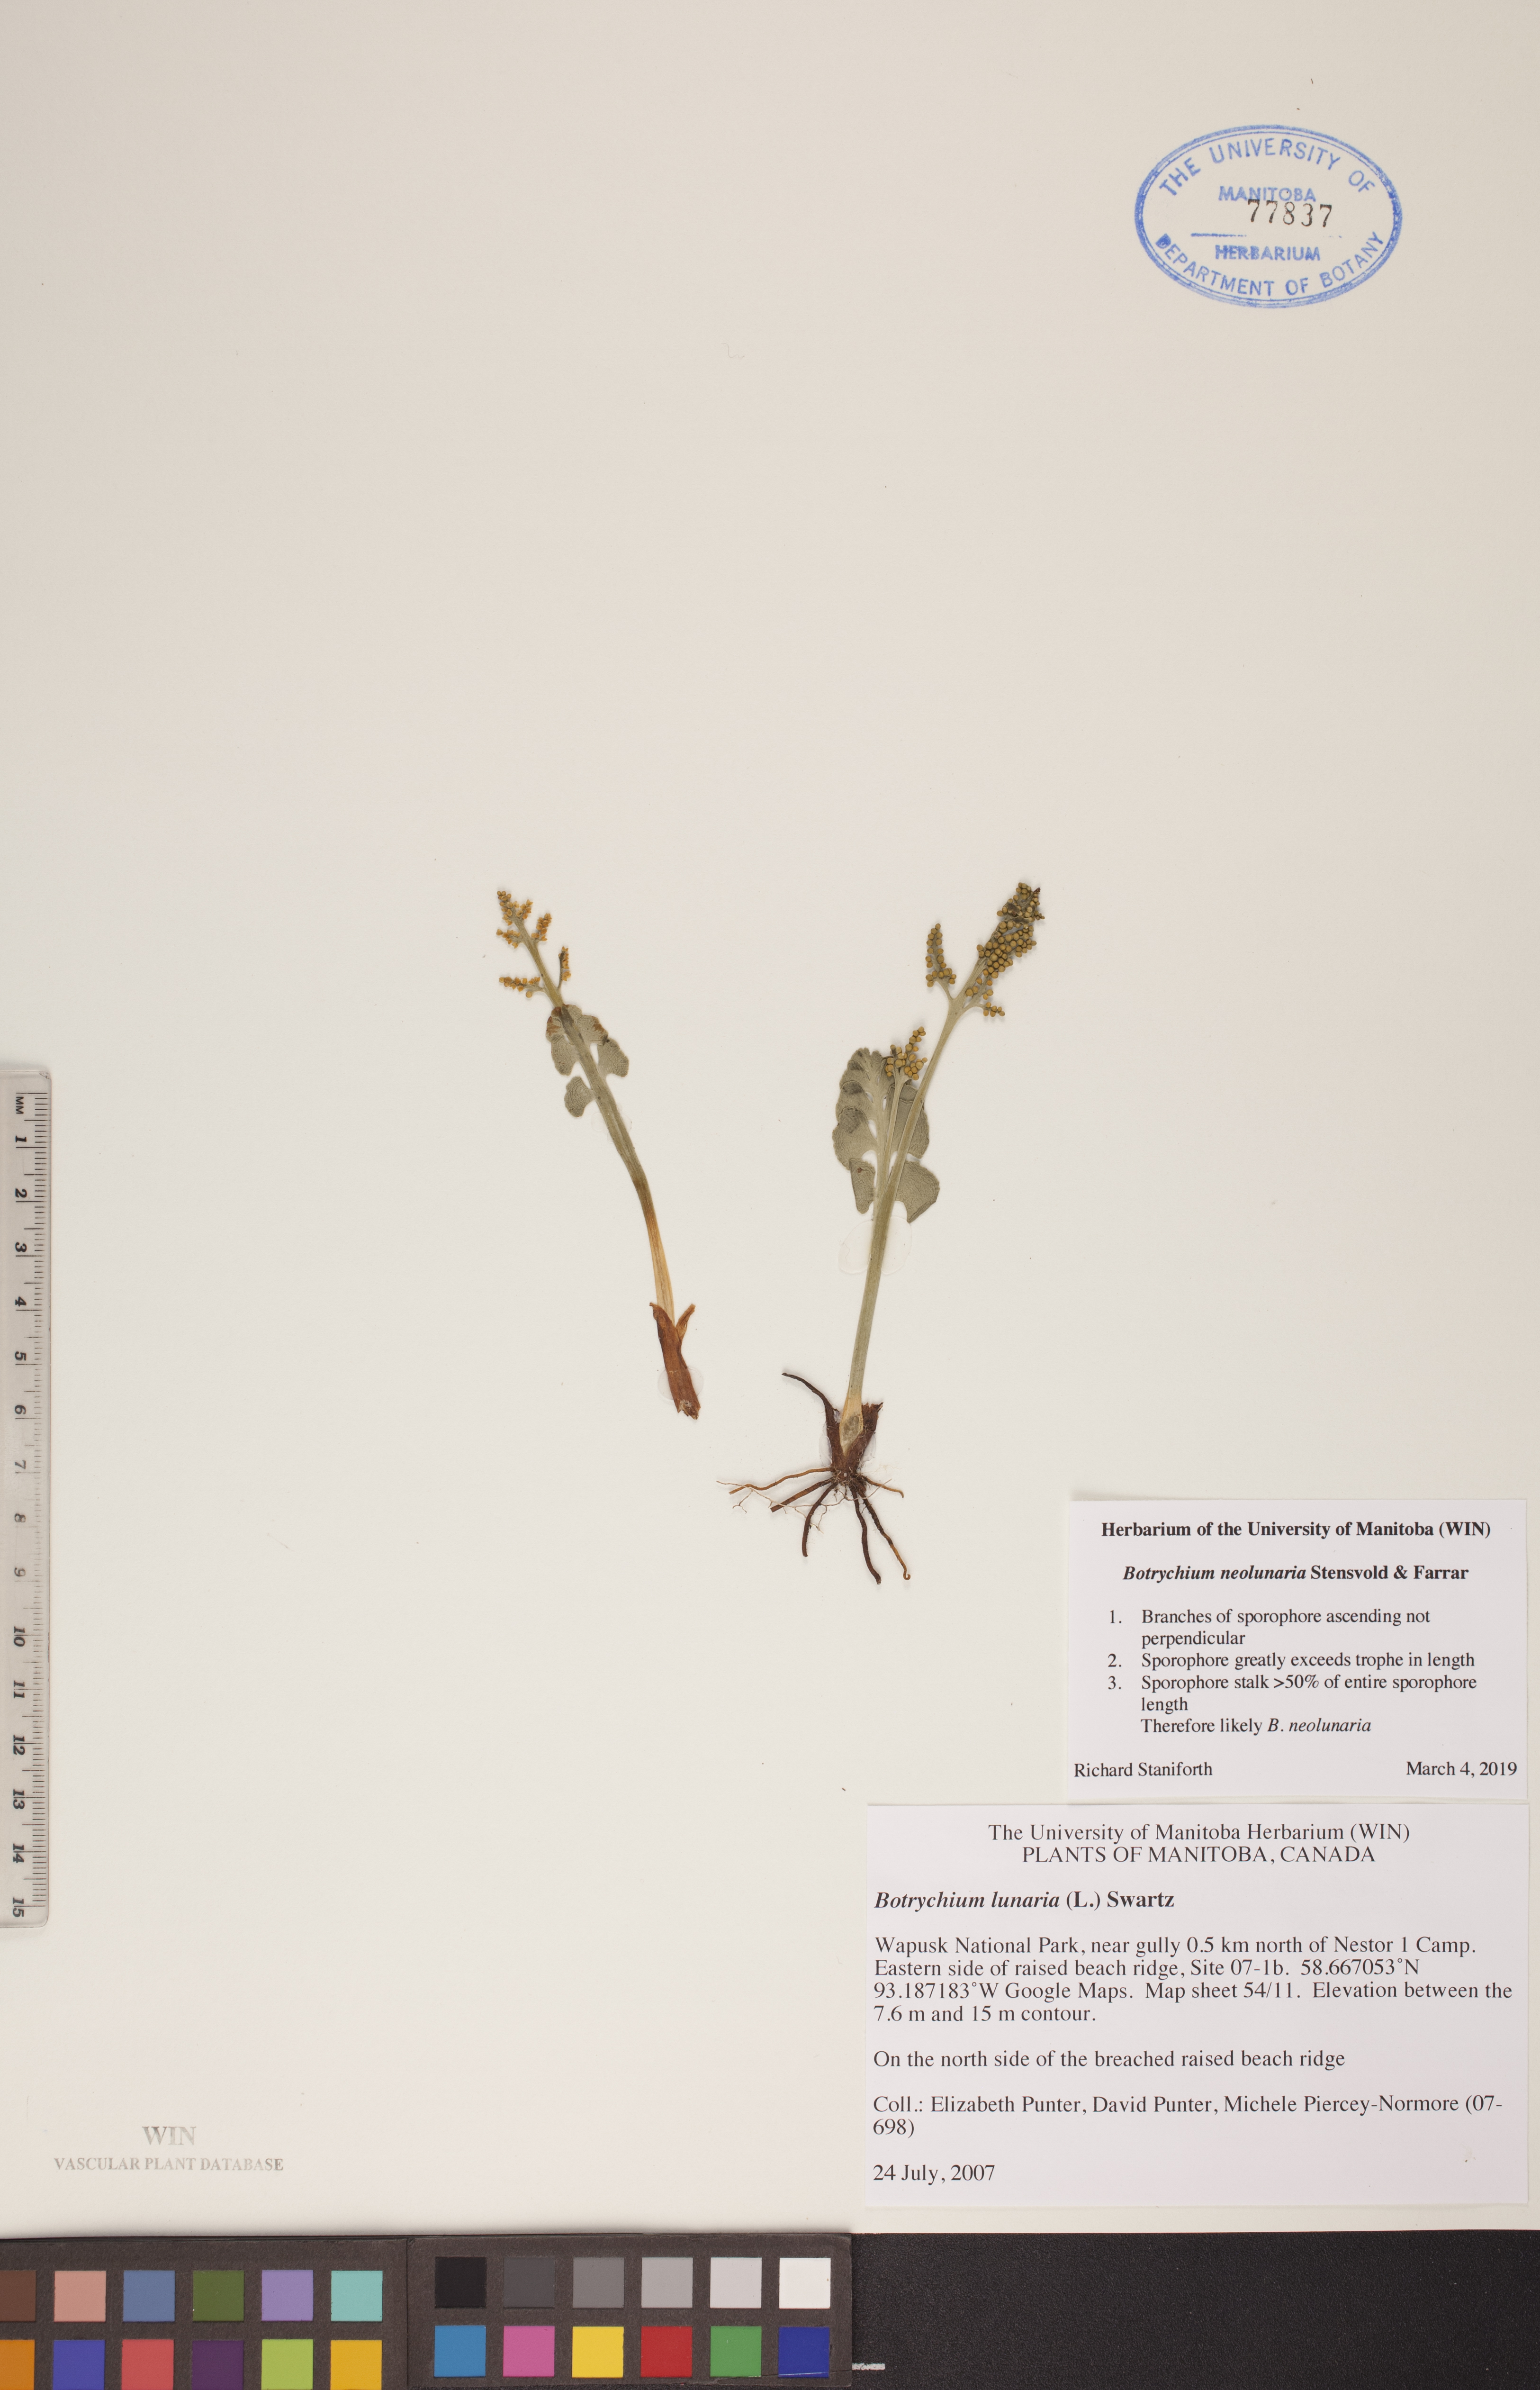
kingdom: Plantae
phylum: Tracheophyta
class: Polypodiopsida
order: Ophioglossales
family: Ophioglossaceae
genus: Botrychium
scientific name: Botrychium neolunaria
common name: New world moonwort
